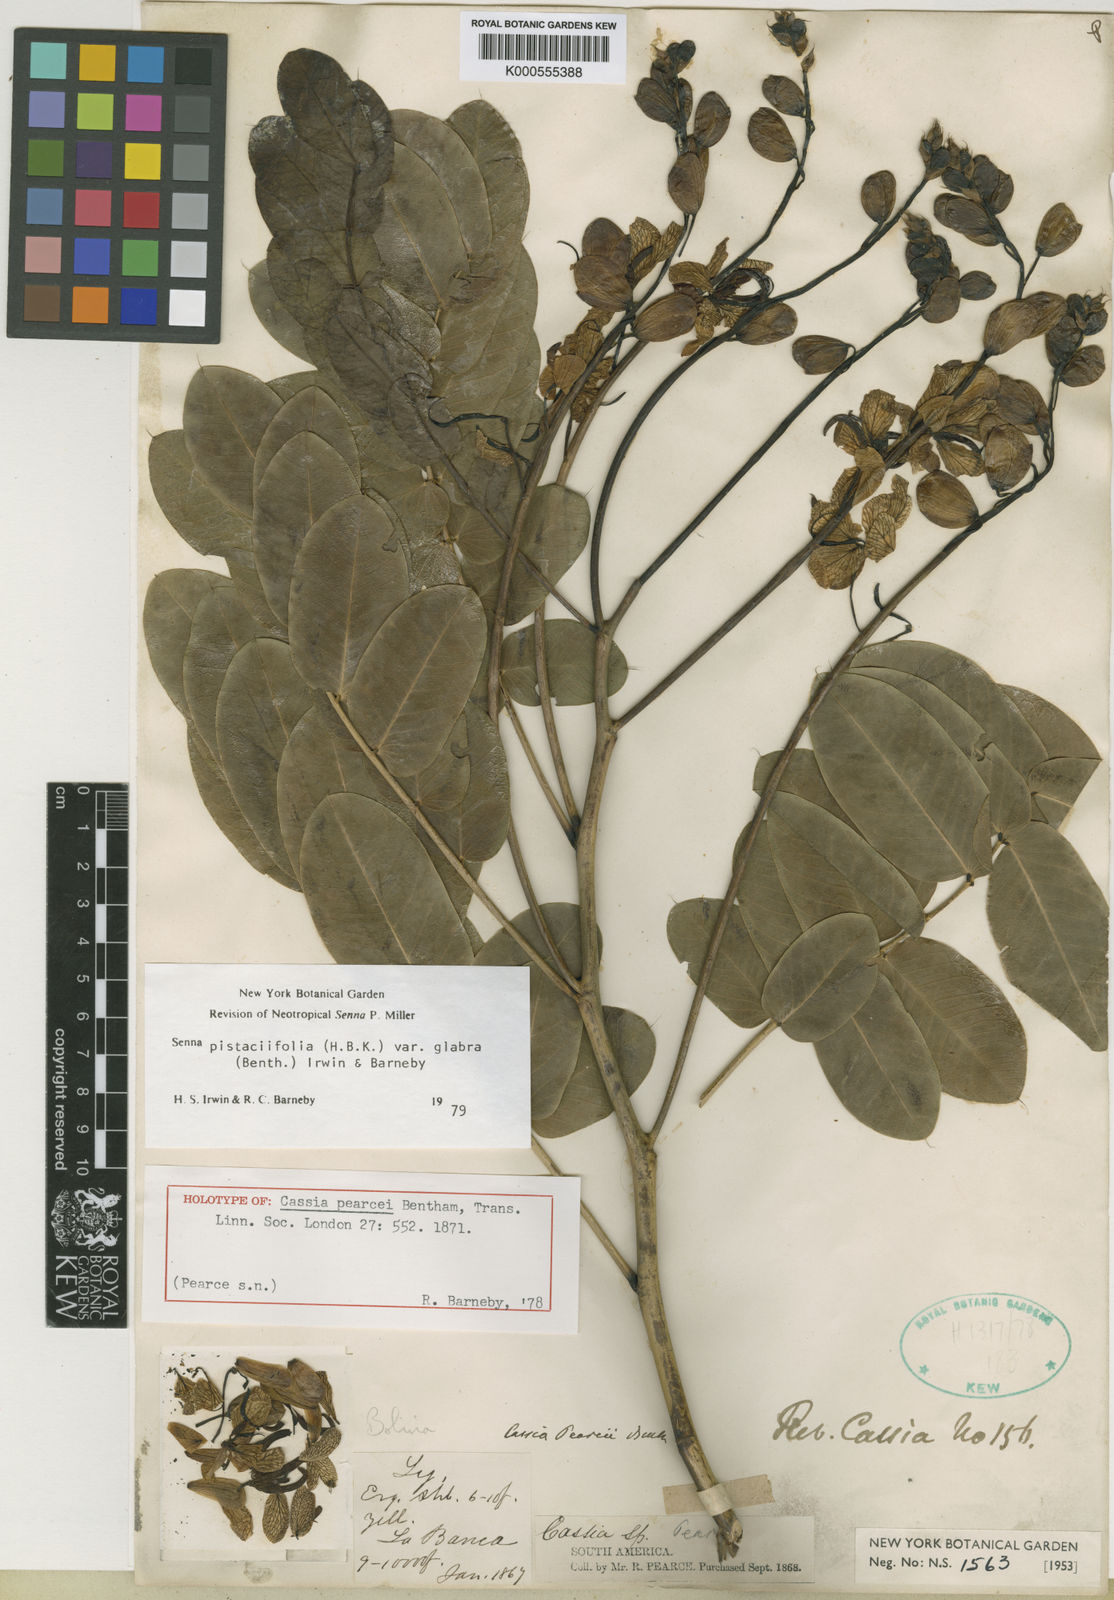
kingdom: Plantae
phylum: Tracheophyta
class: Magnoliopsida
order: Fabales
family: Fabaceae
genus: Senna
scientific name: Senna pistaciifolia
